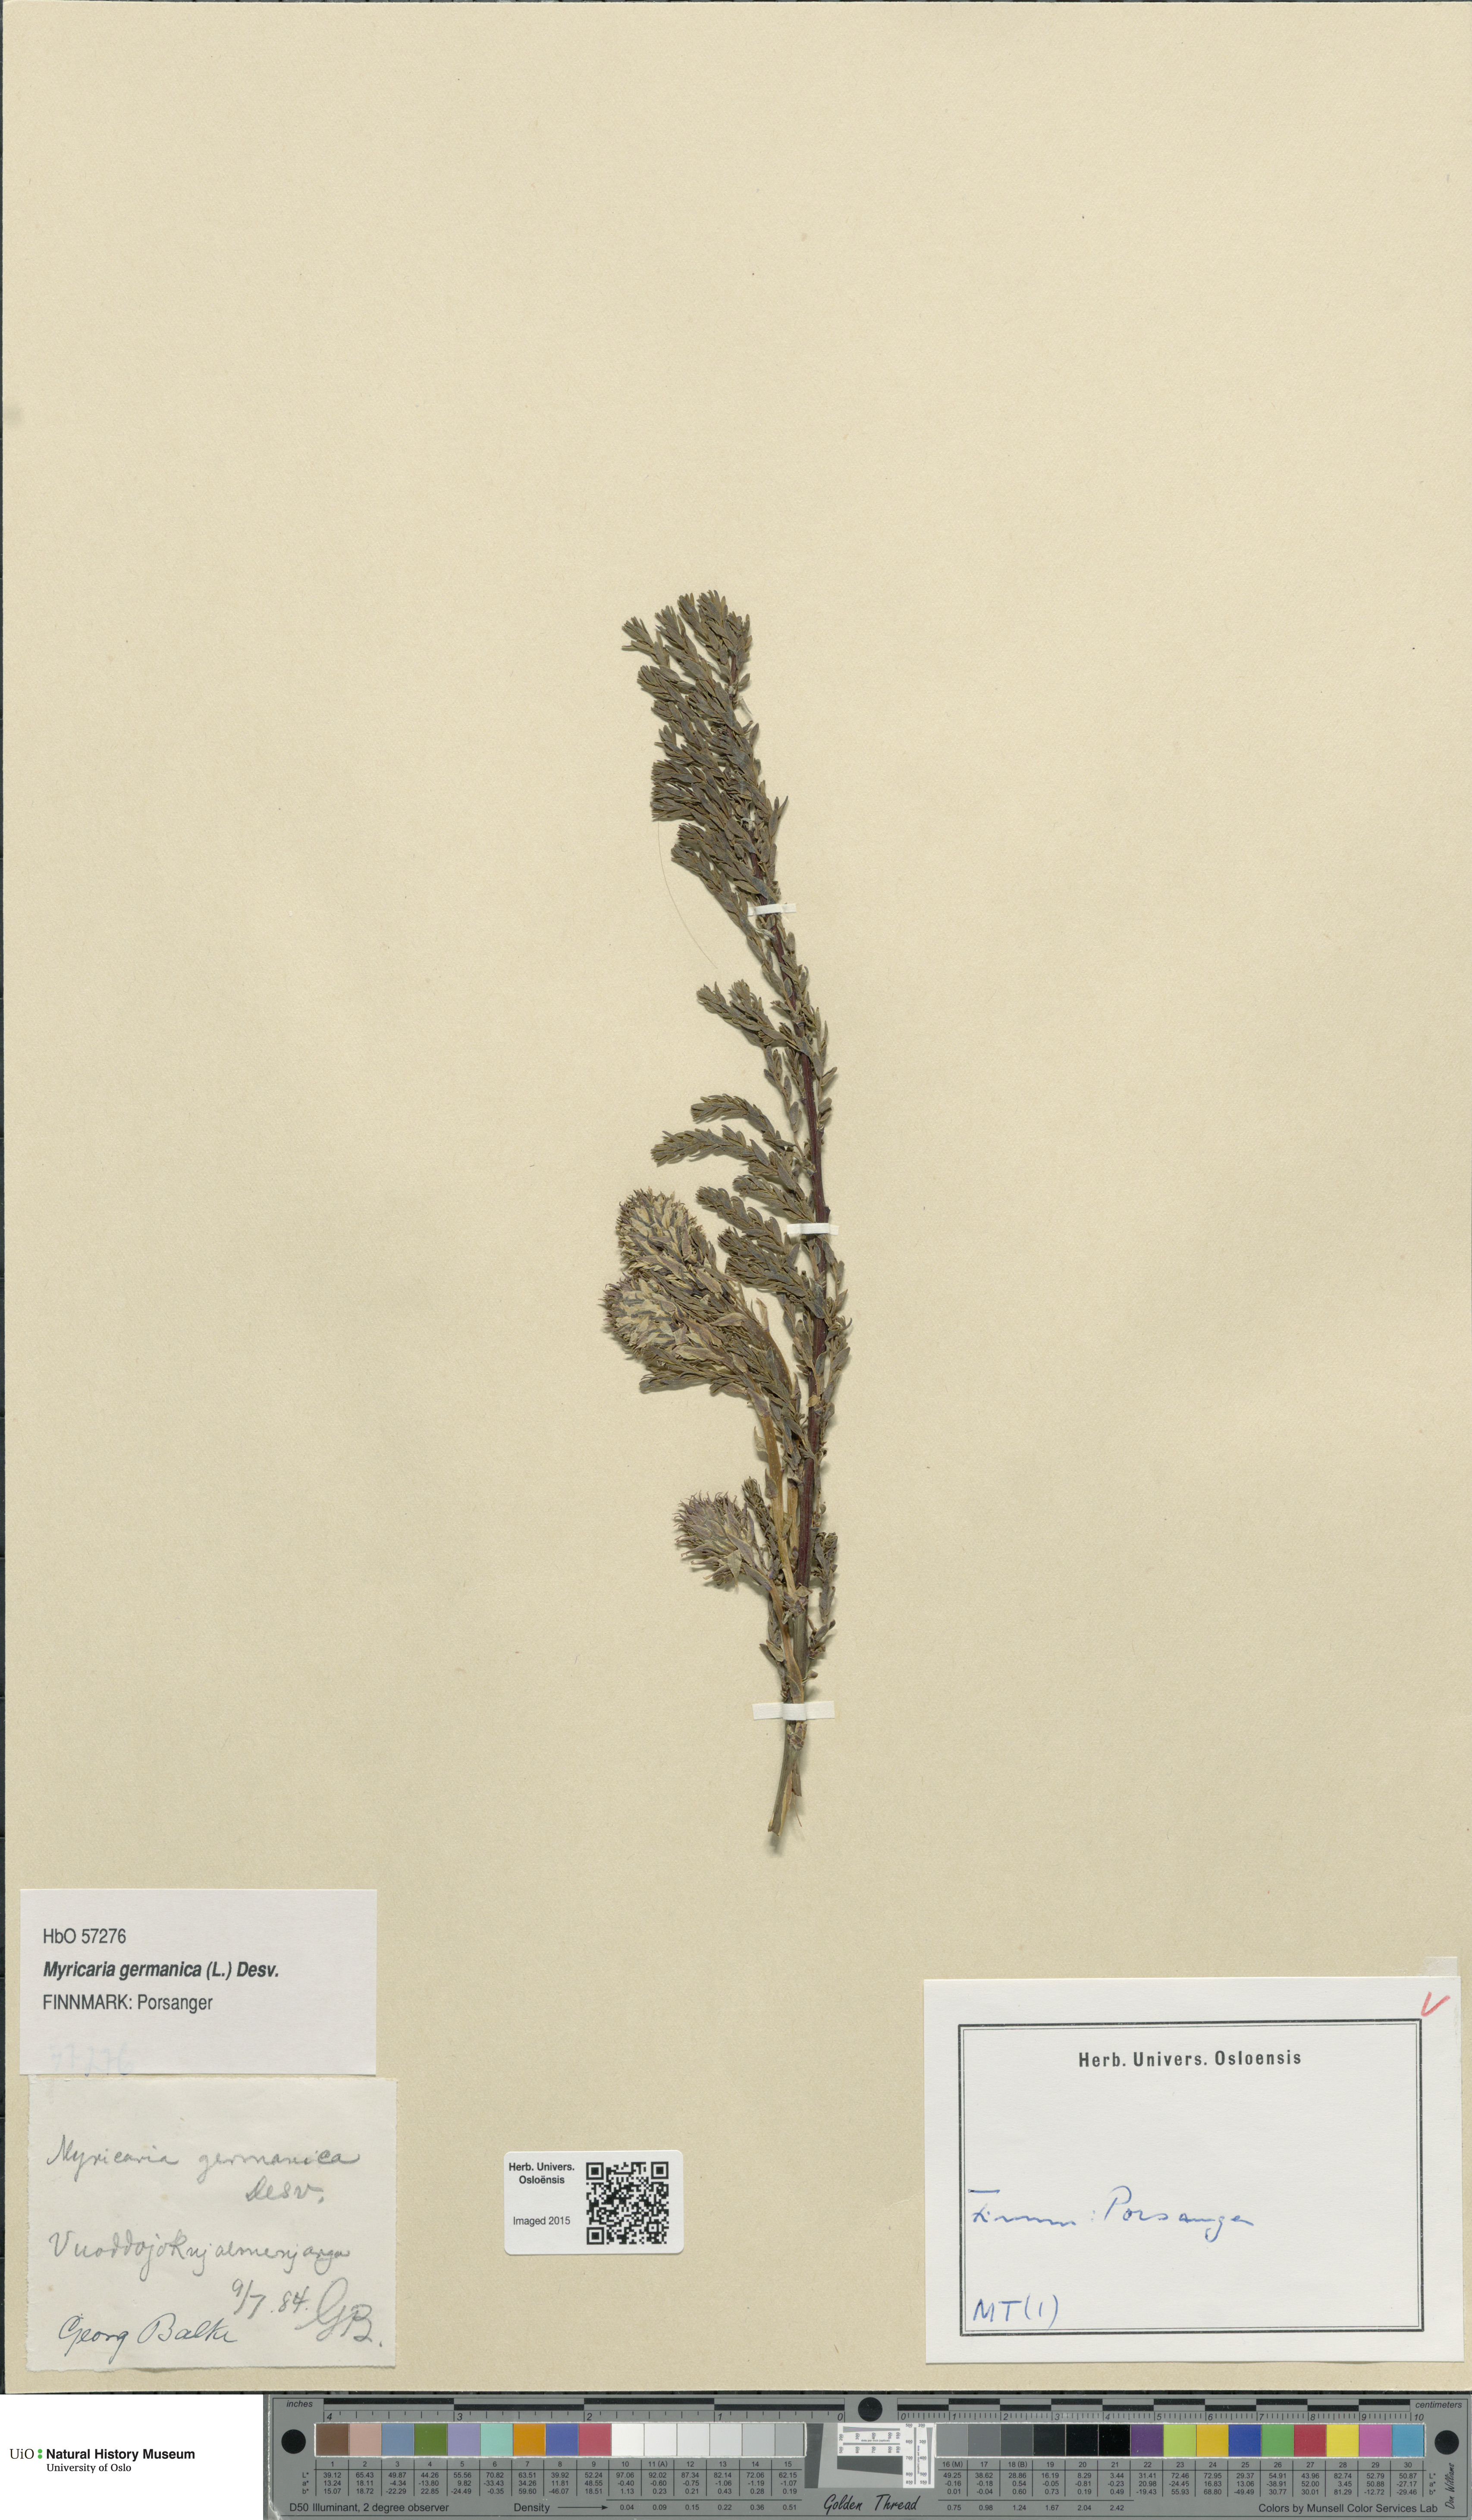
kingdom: Plantae
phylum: Tracheophyta
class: Magnoliopsida
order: Caryophyllales
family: Tamaricaceae
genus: Myricaria
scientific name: Myricaria germanica
